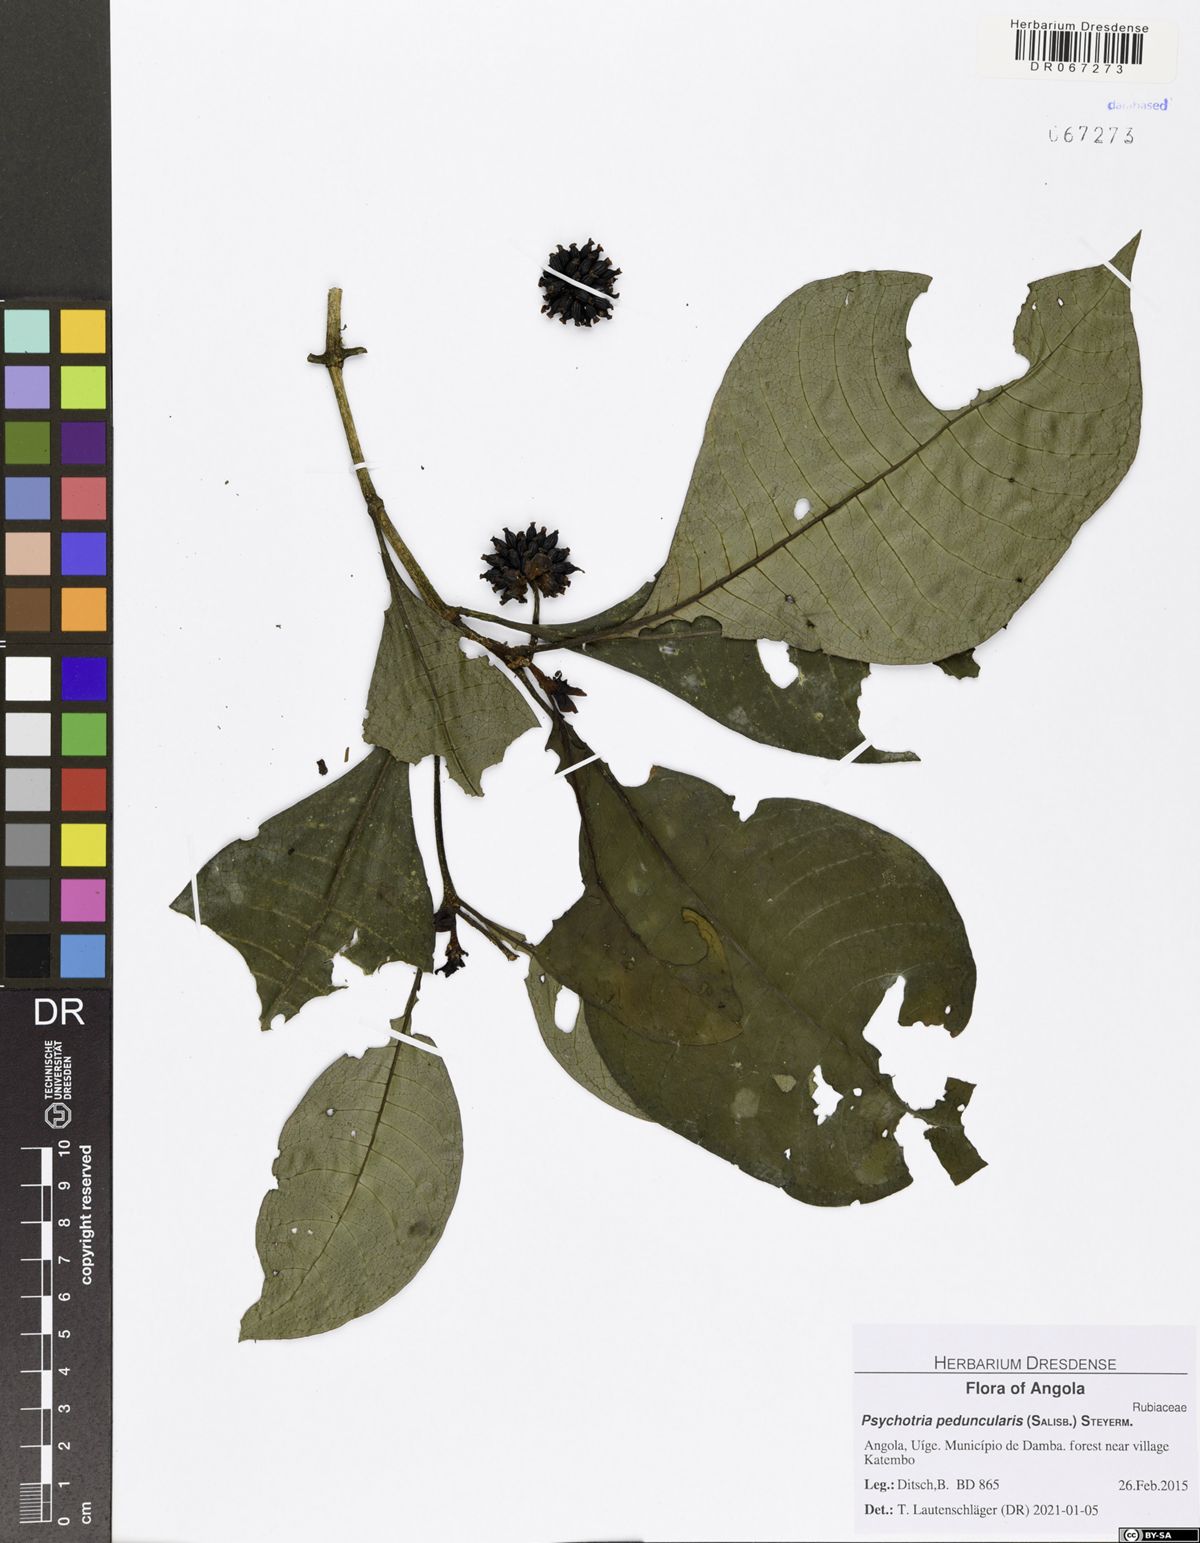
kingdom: Plantae
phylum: Tracheophyta
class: Magnoliopsida
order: Gentianales
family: Rubiaceae
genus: Psychotria
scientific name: Psychotria peduncularis
